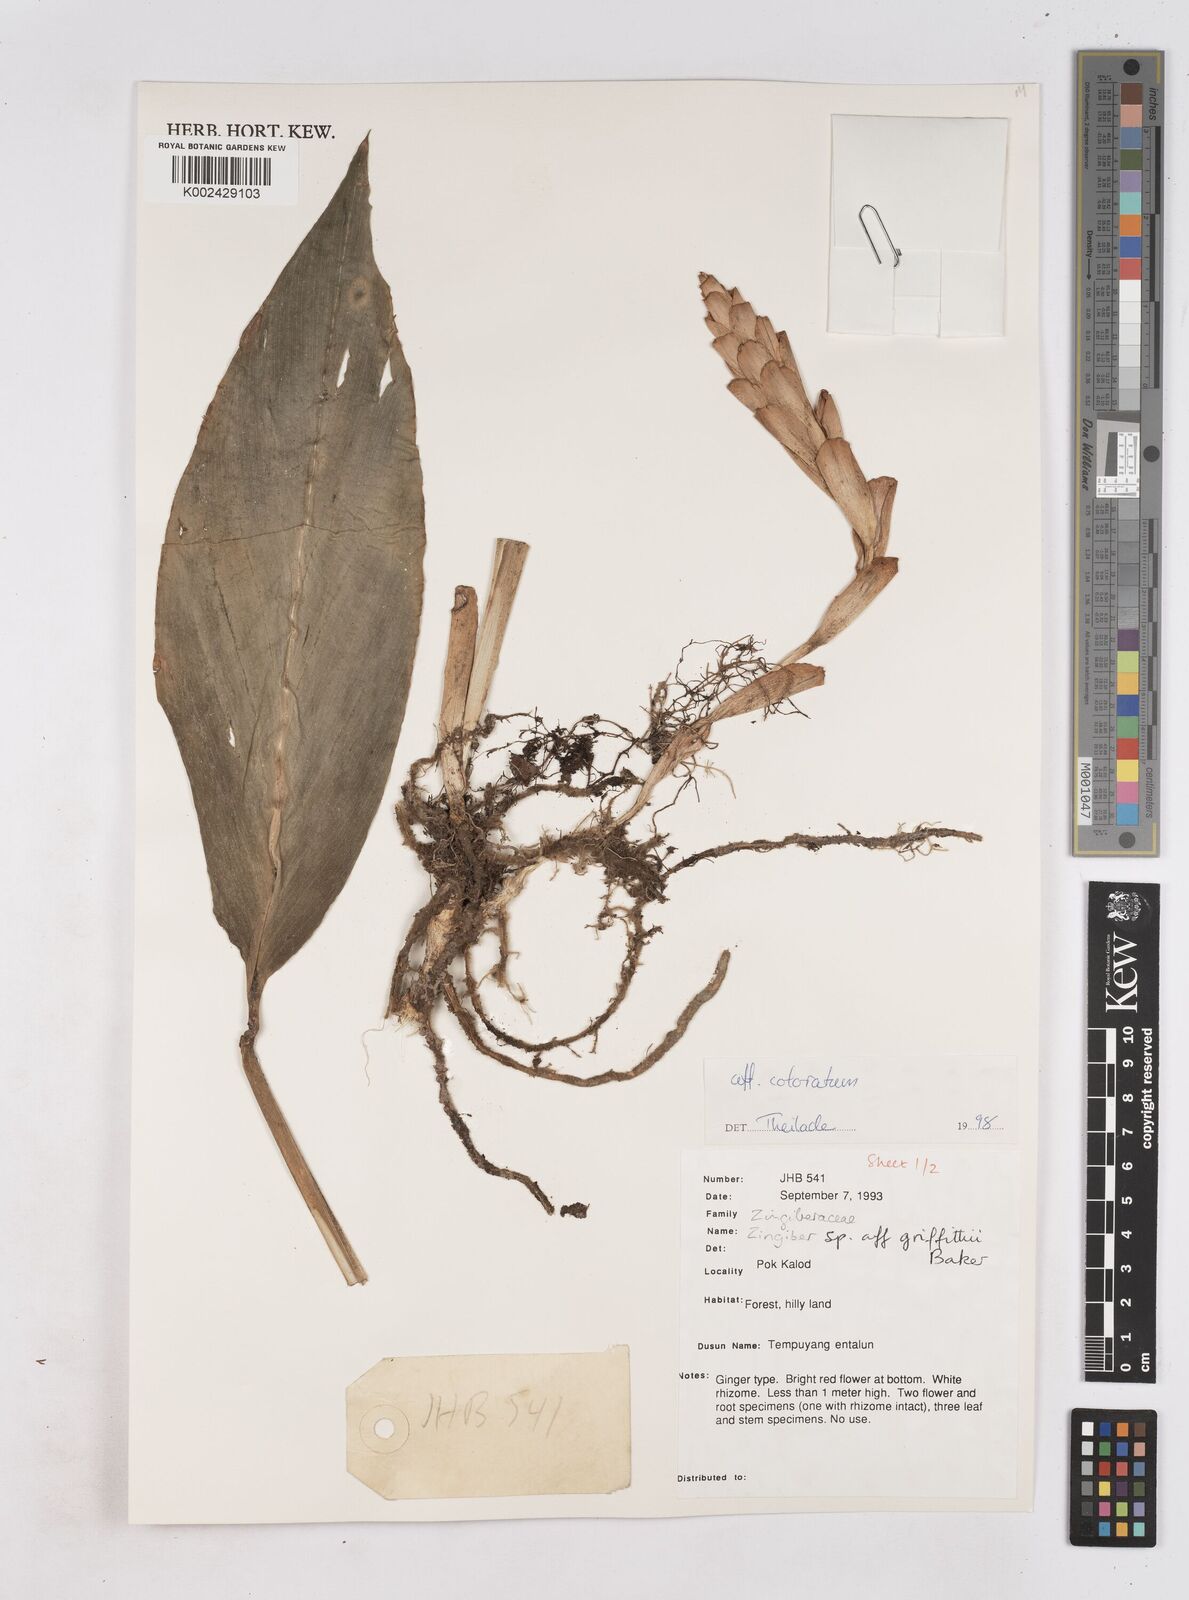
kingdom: Plantae
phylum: Tracheophyta
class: Liliopsida
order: Zingiberales
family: Zingiberaceae
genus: Zingiber
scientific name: Zingiber coloratum
